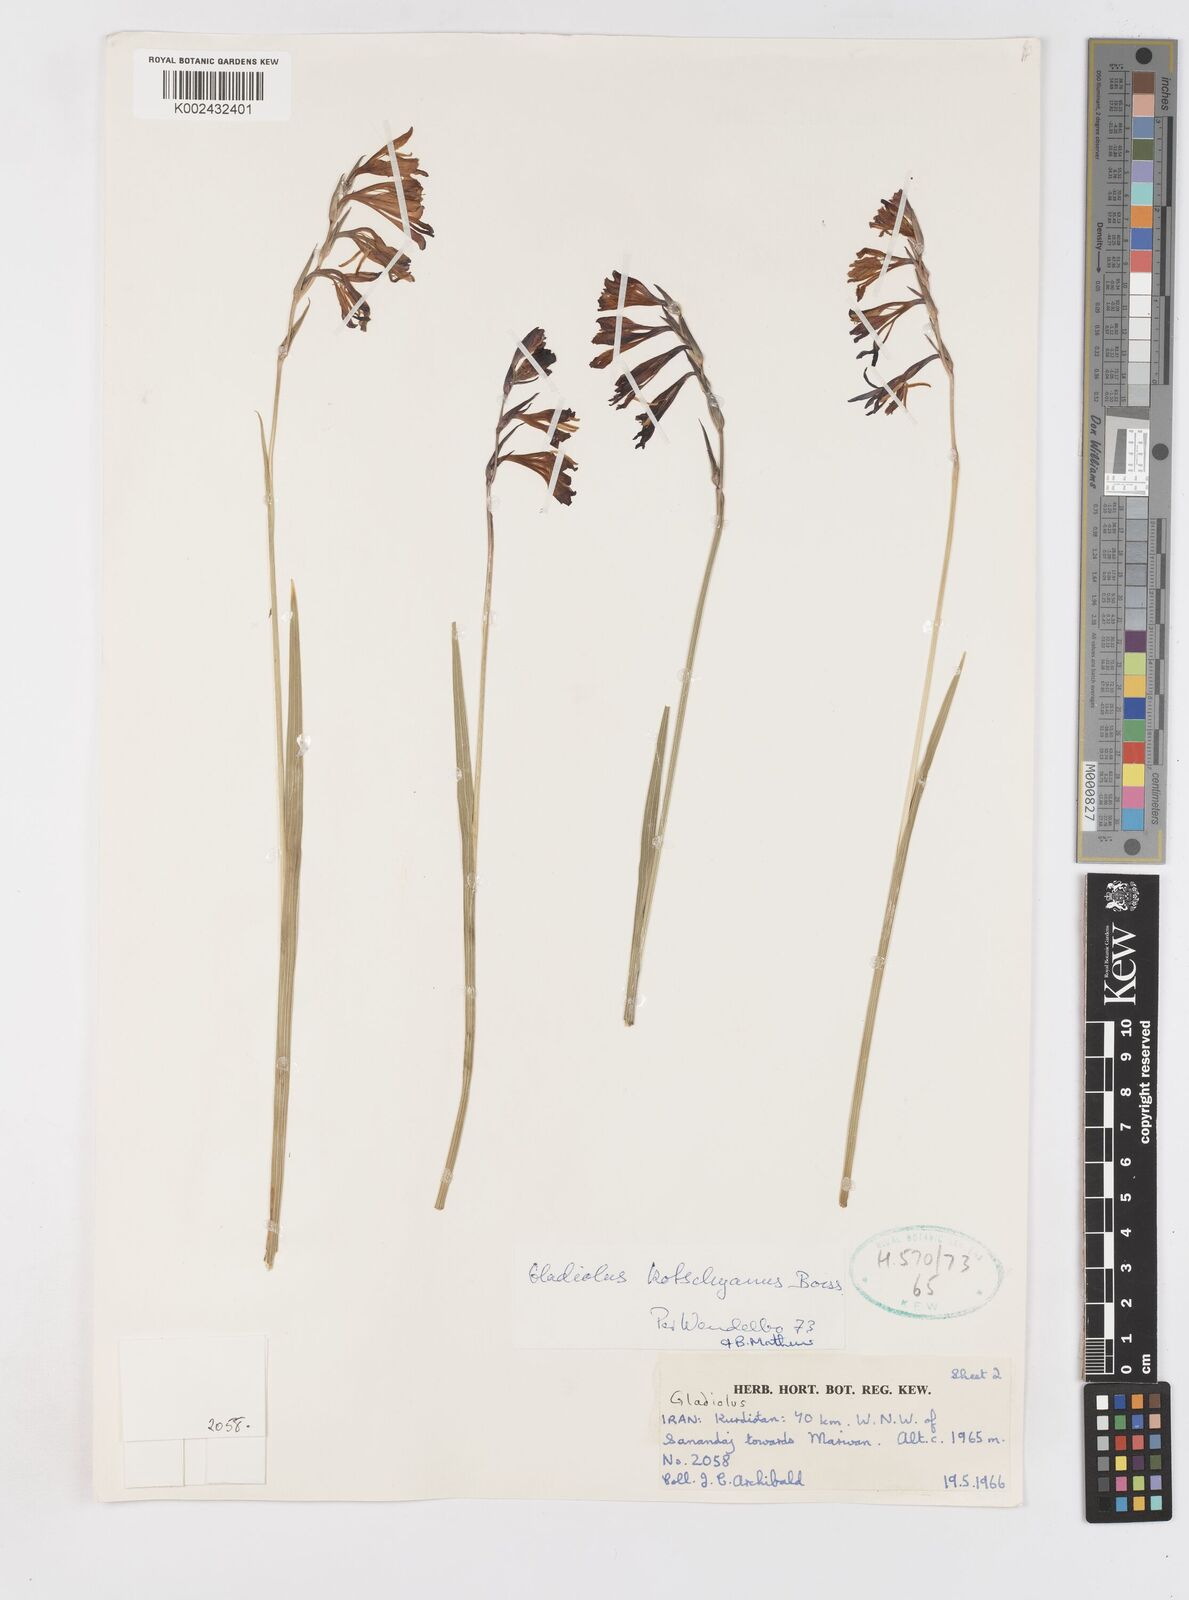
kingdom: Plantae
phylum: Tracheophyta
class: Liliopsida
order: Asparagales
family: Iridaceae
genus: Gladiolus
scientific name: Gladiolus kotschyanus
